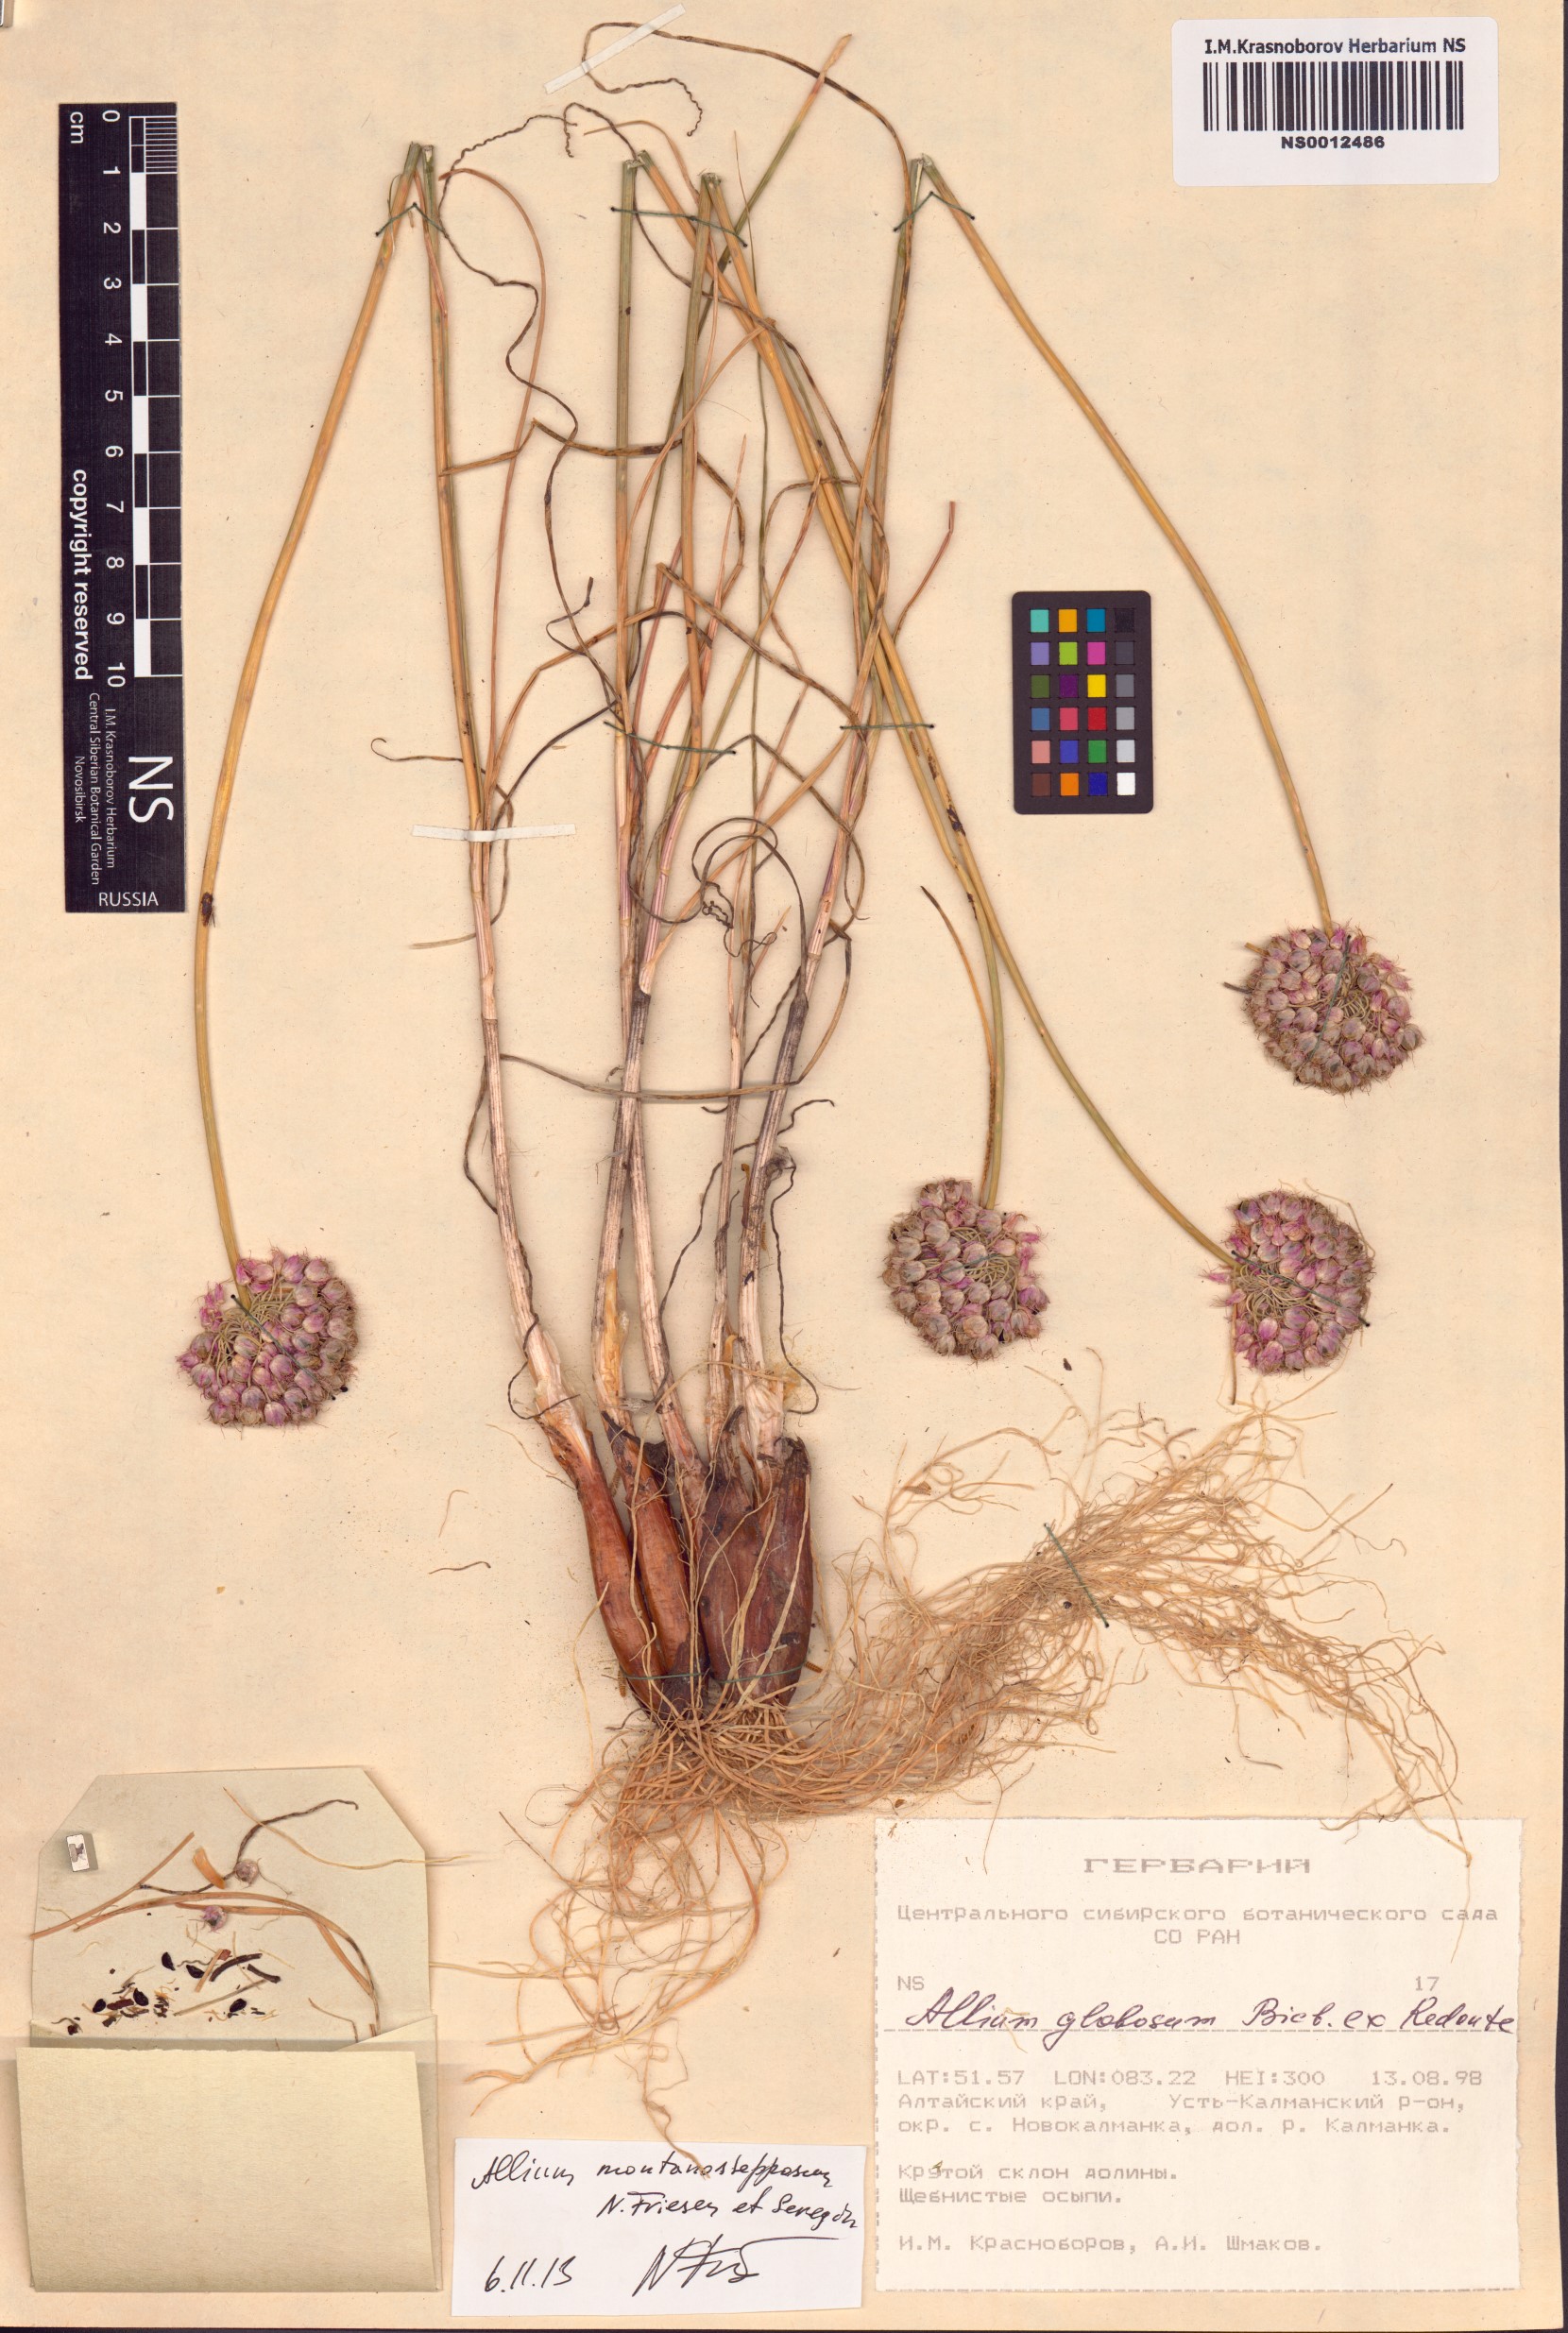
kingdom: Plantae
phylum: Tracheophyta
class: Liliopsida
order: Asparagales
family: Amaryllidaceae
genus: Allium
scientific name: Allium montanostepposum
